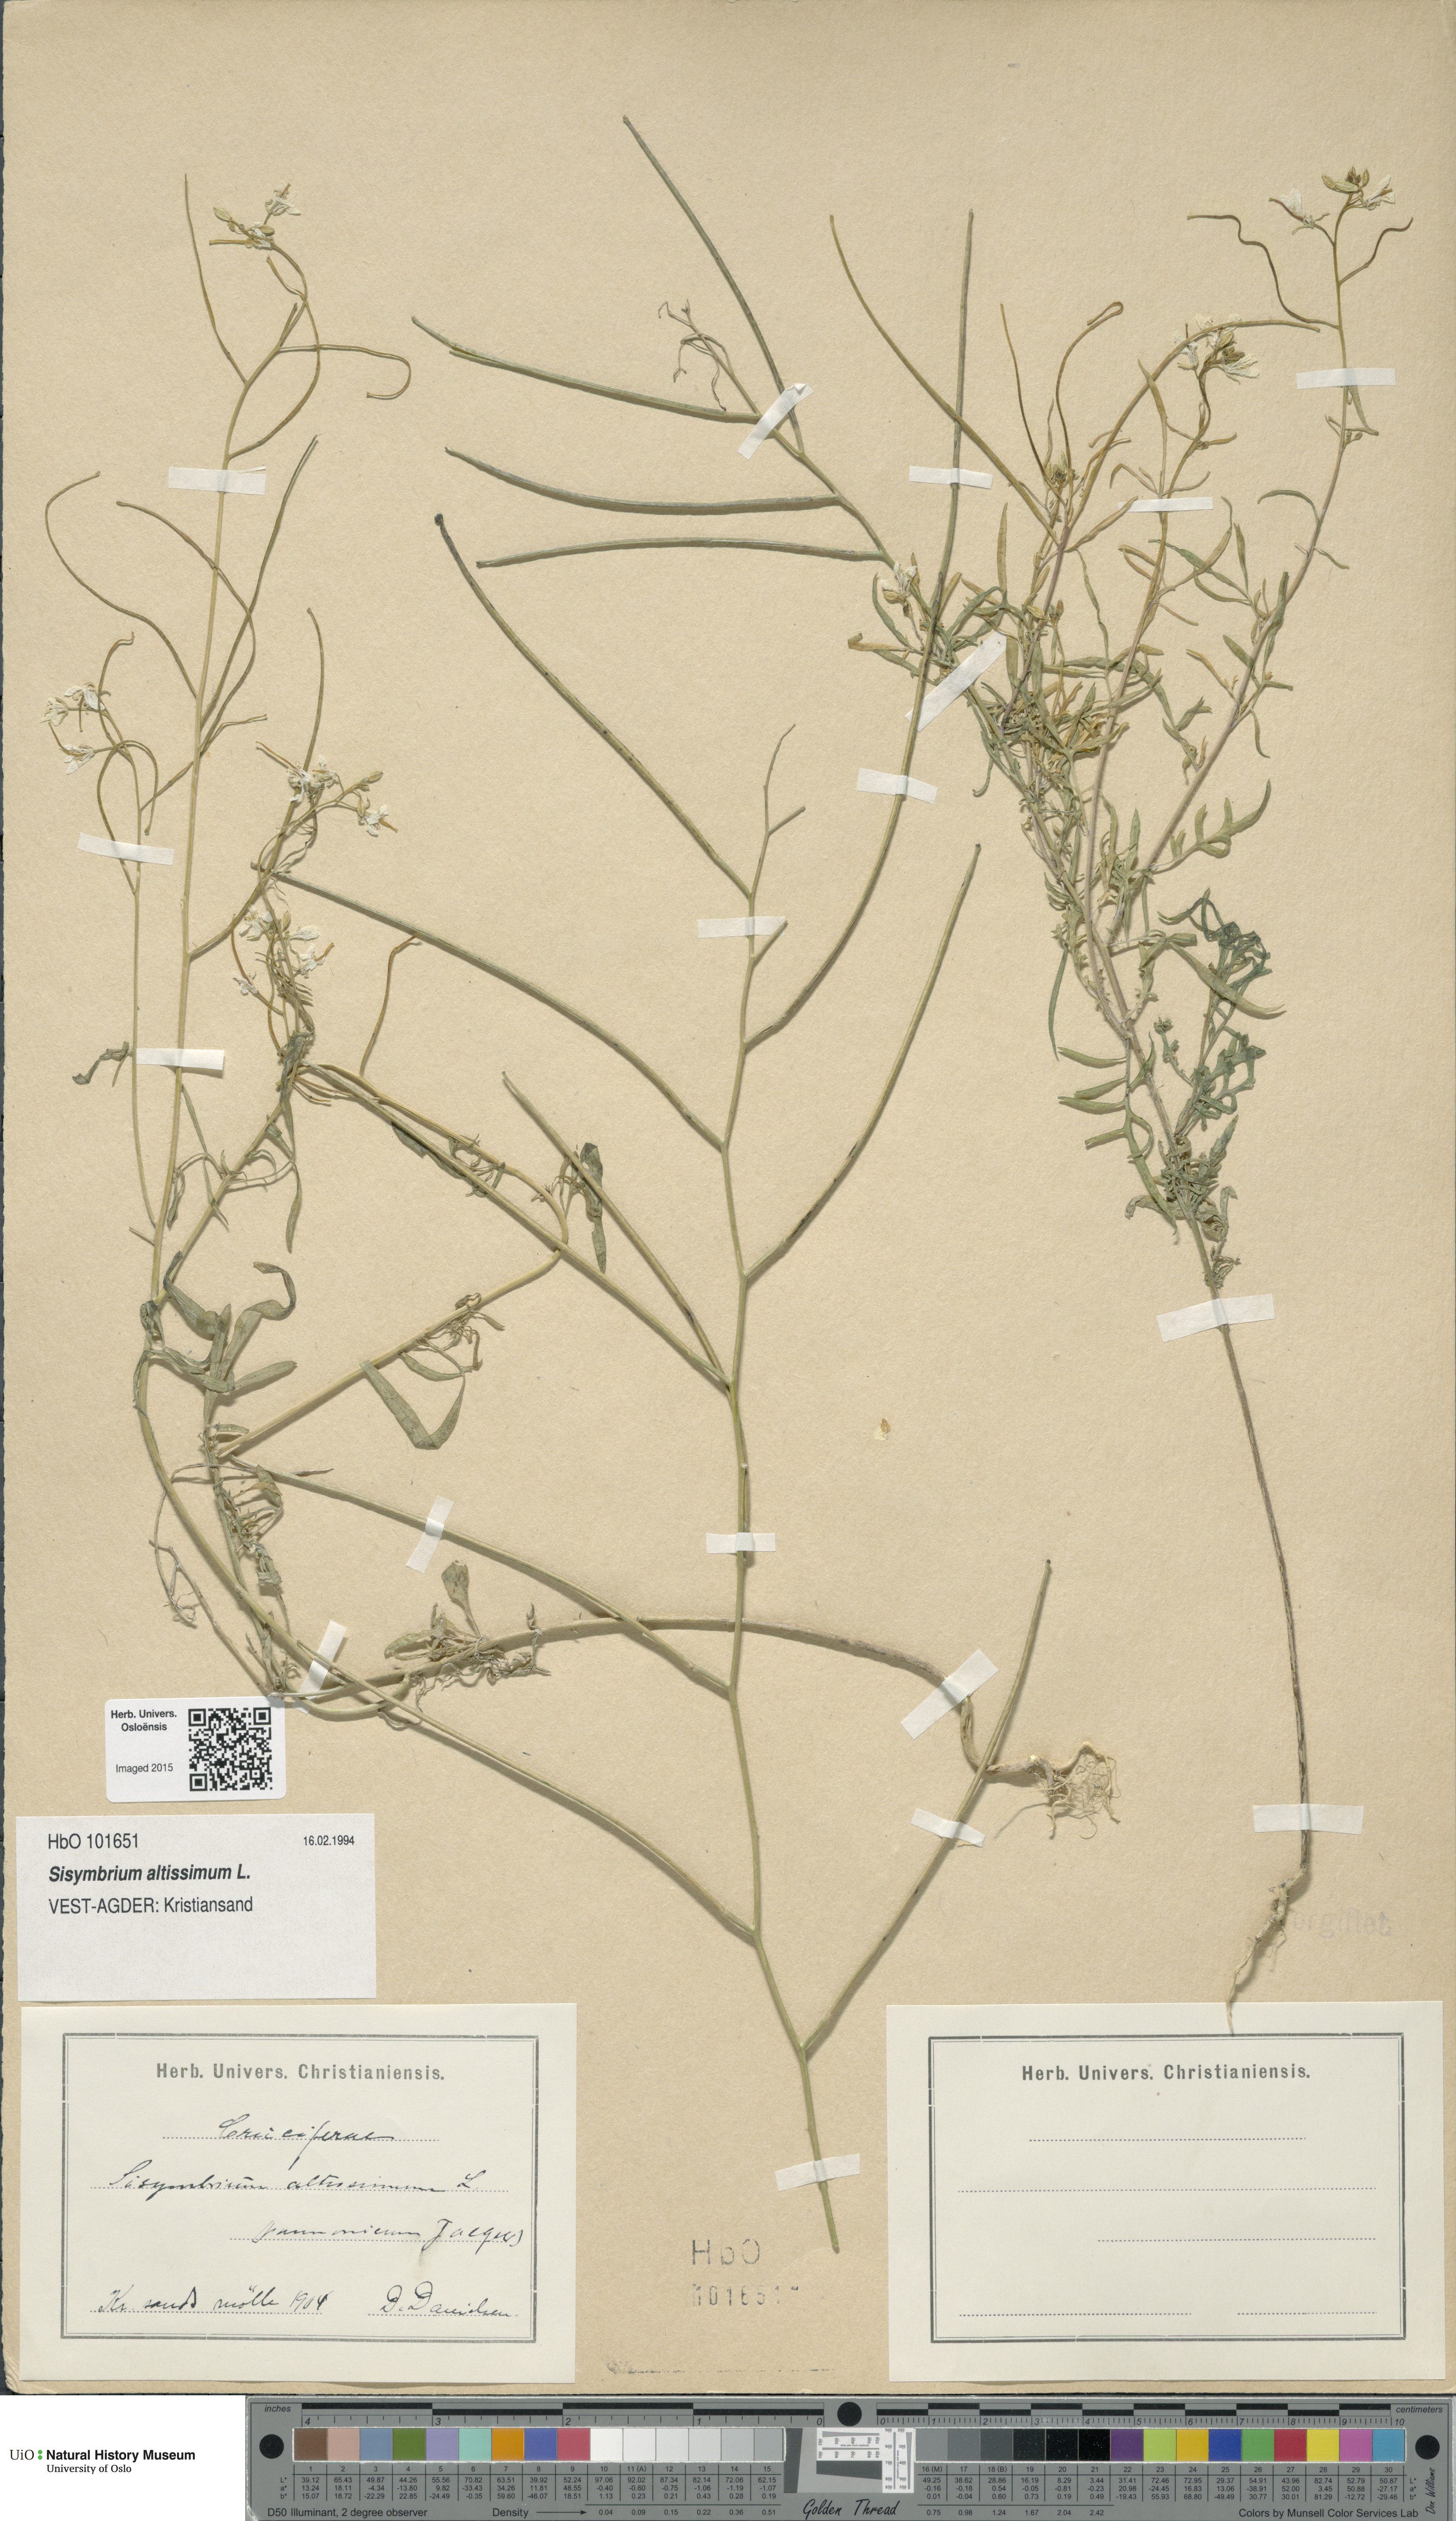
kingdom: Plantae
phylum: Tracheophyta
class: Magnoliopsida
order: Brassicales
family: Brassicaceae
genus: Sisymbrium
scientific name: Sisymbrium altissimum
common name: Tall rocket
